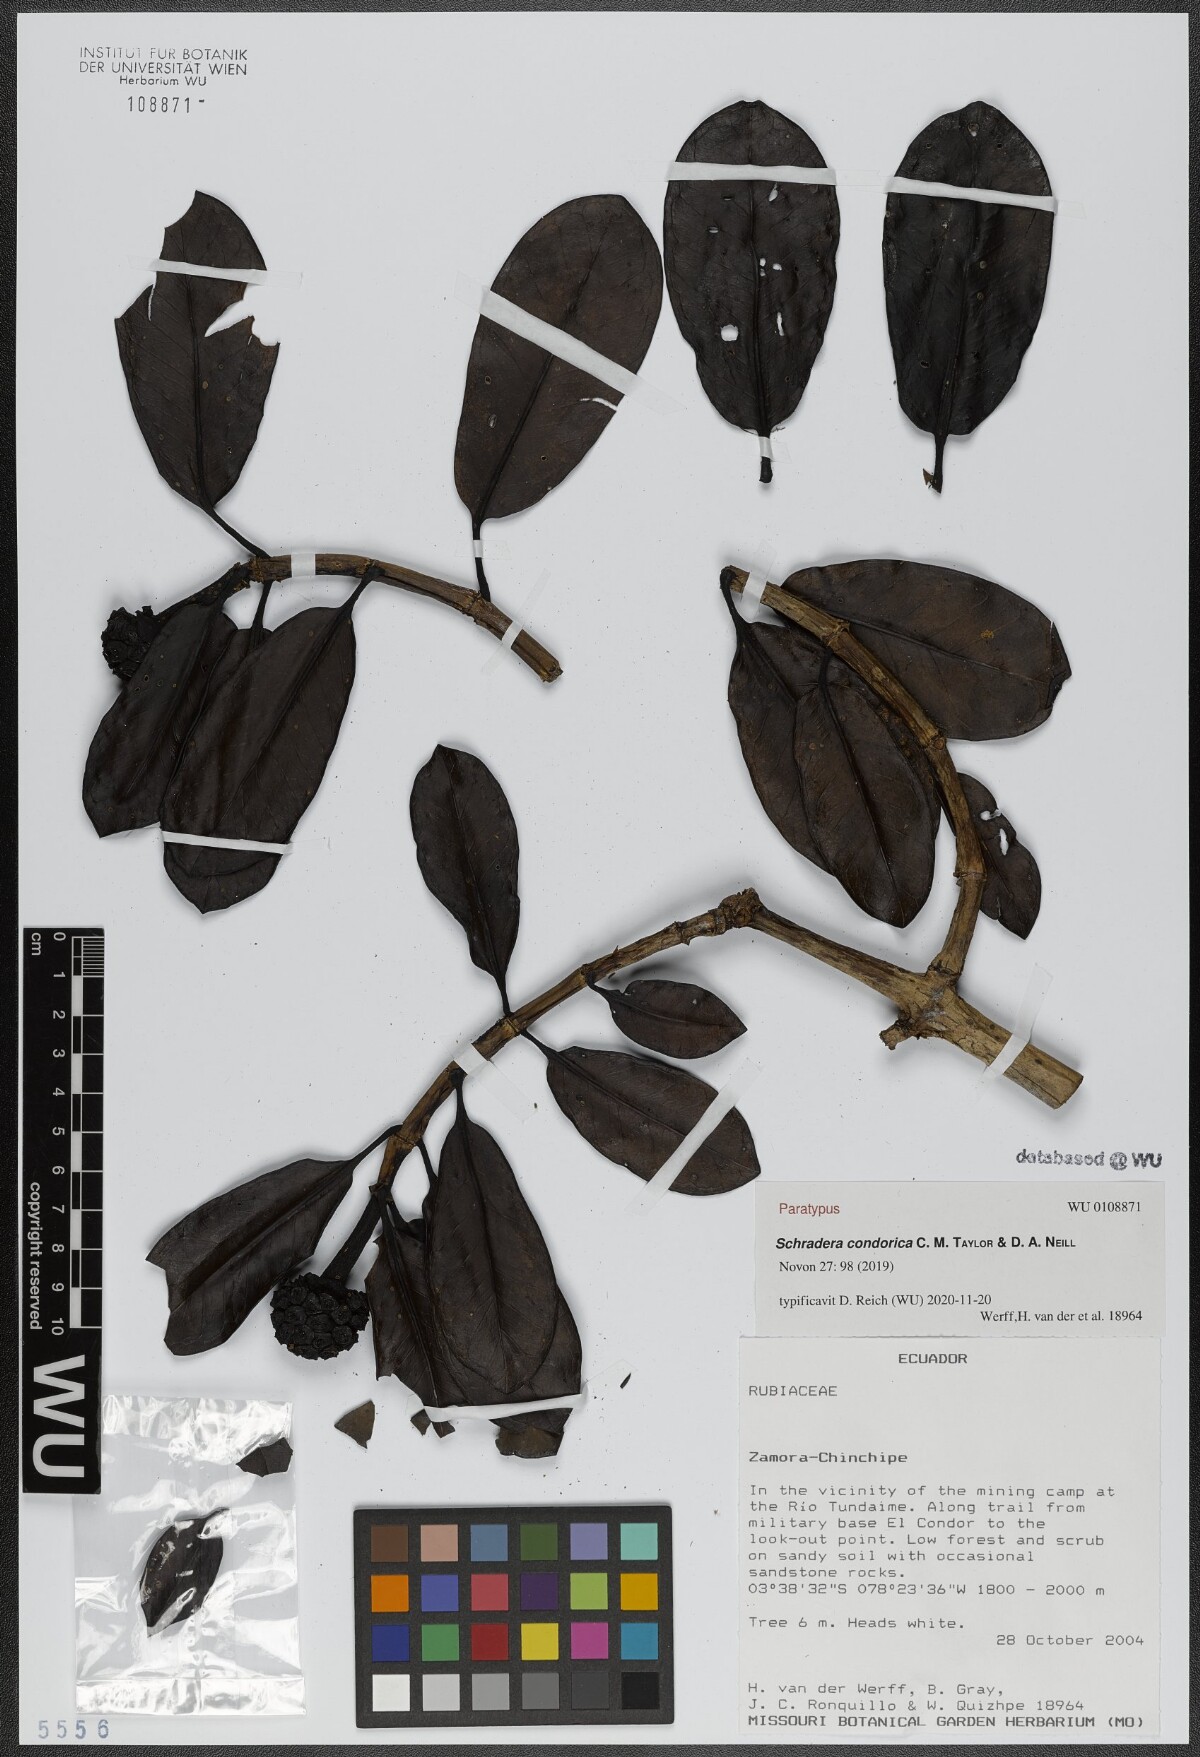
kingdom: Plantae
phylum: Tracheophyta
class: Magnoliopsida
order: Gentianales
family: Rubiaceae
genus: Schradera
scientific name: Schradera condorica
